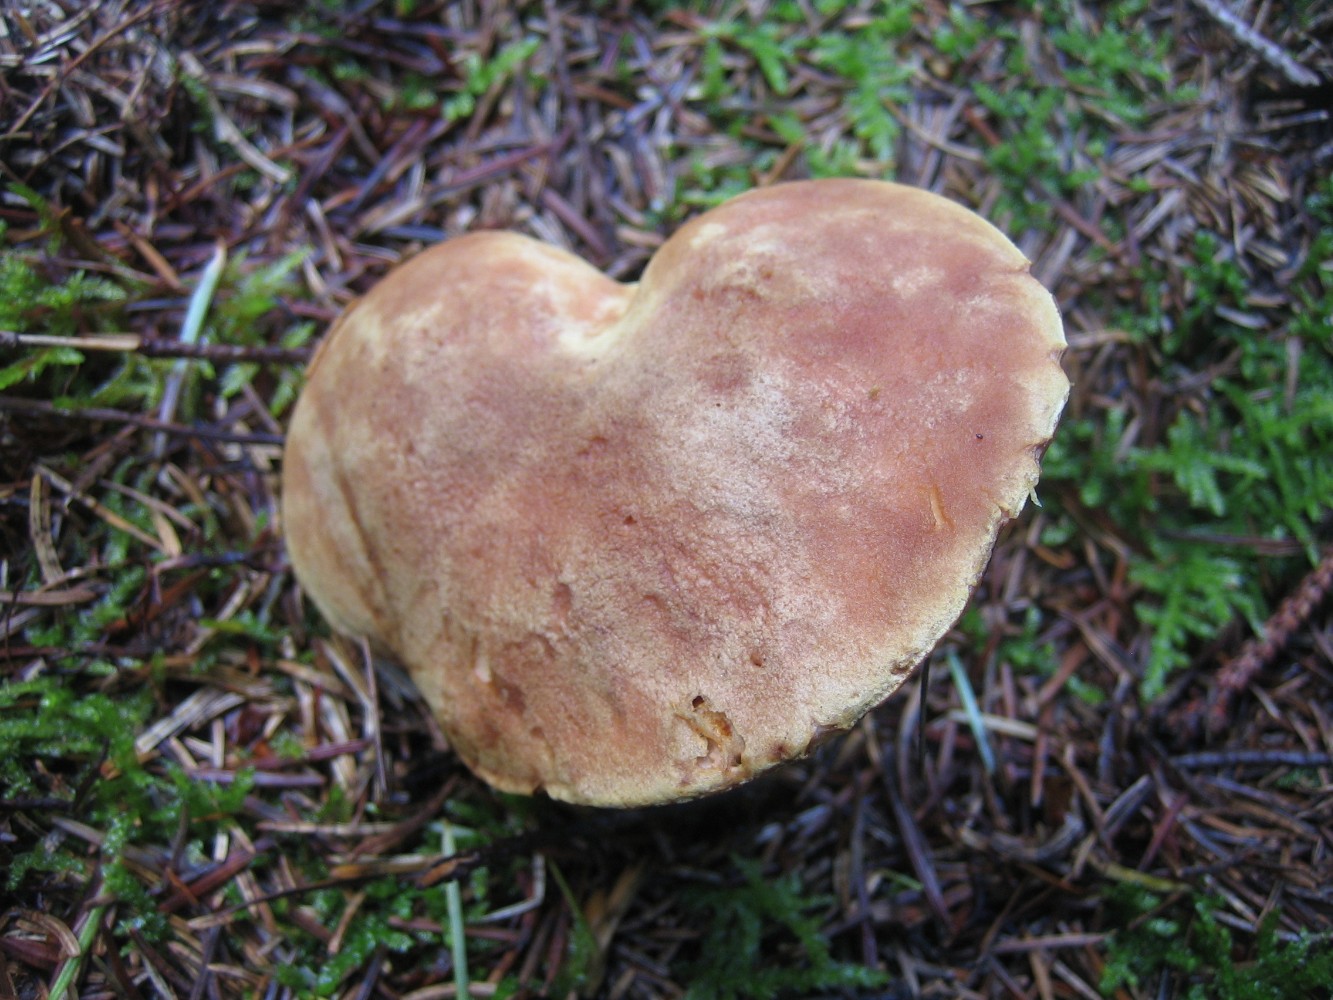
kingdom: Fungi
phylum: Basidiomycota
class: Agaricomycetes
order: Boletales
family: Boletaceae
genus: Xerocomus
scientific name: Xerocomus
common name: filtrørhat
